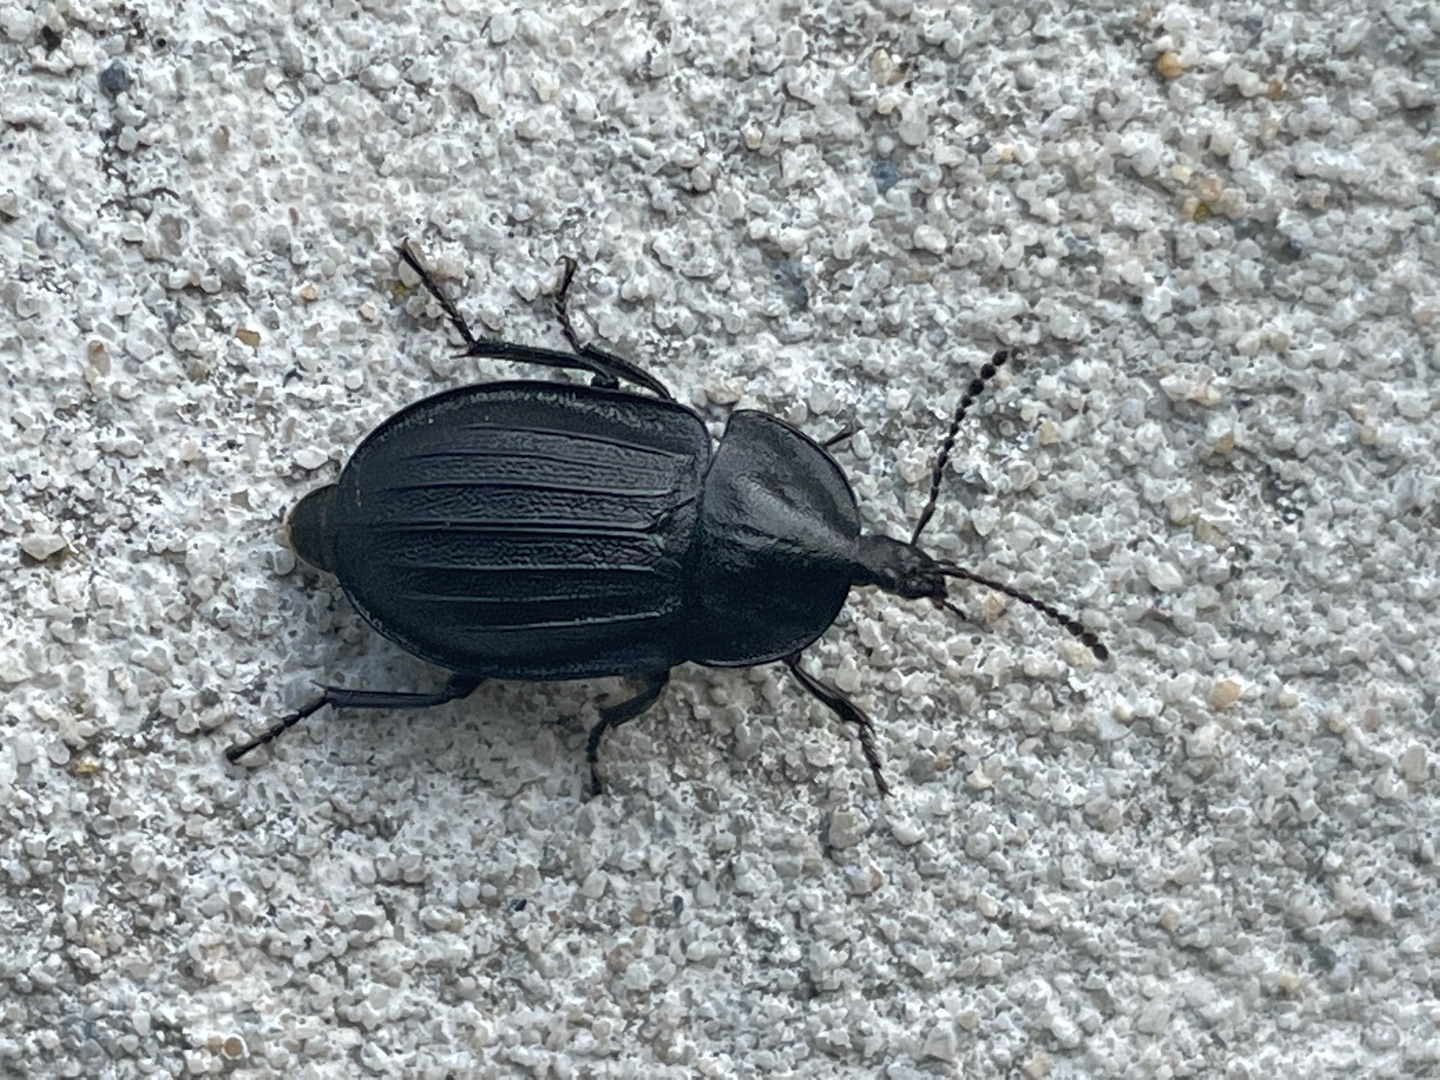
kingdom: Animalia
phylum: Arthropoda
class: Insecta
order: Coleoptera
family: Staphylinidae
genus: Silpha
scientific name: Silpha atrata
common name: Snegleådselbille
